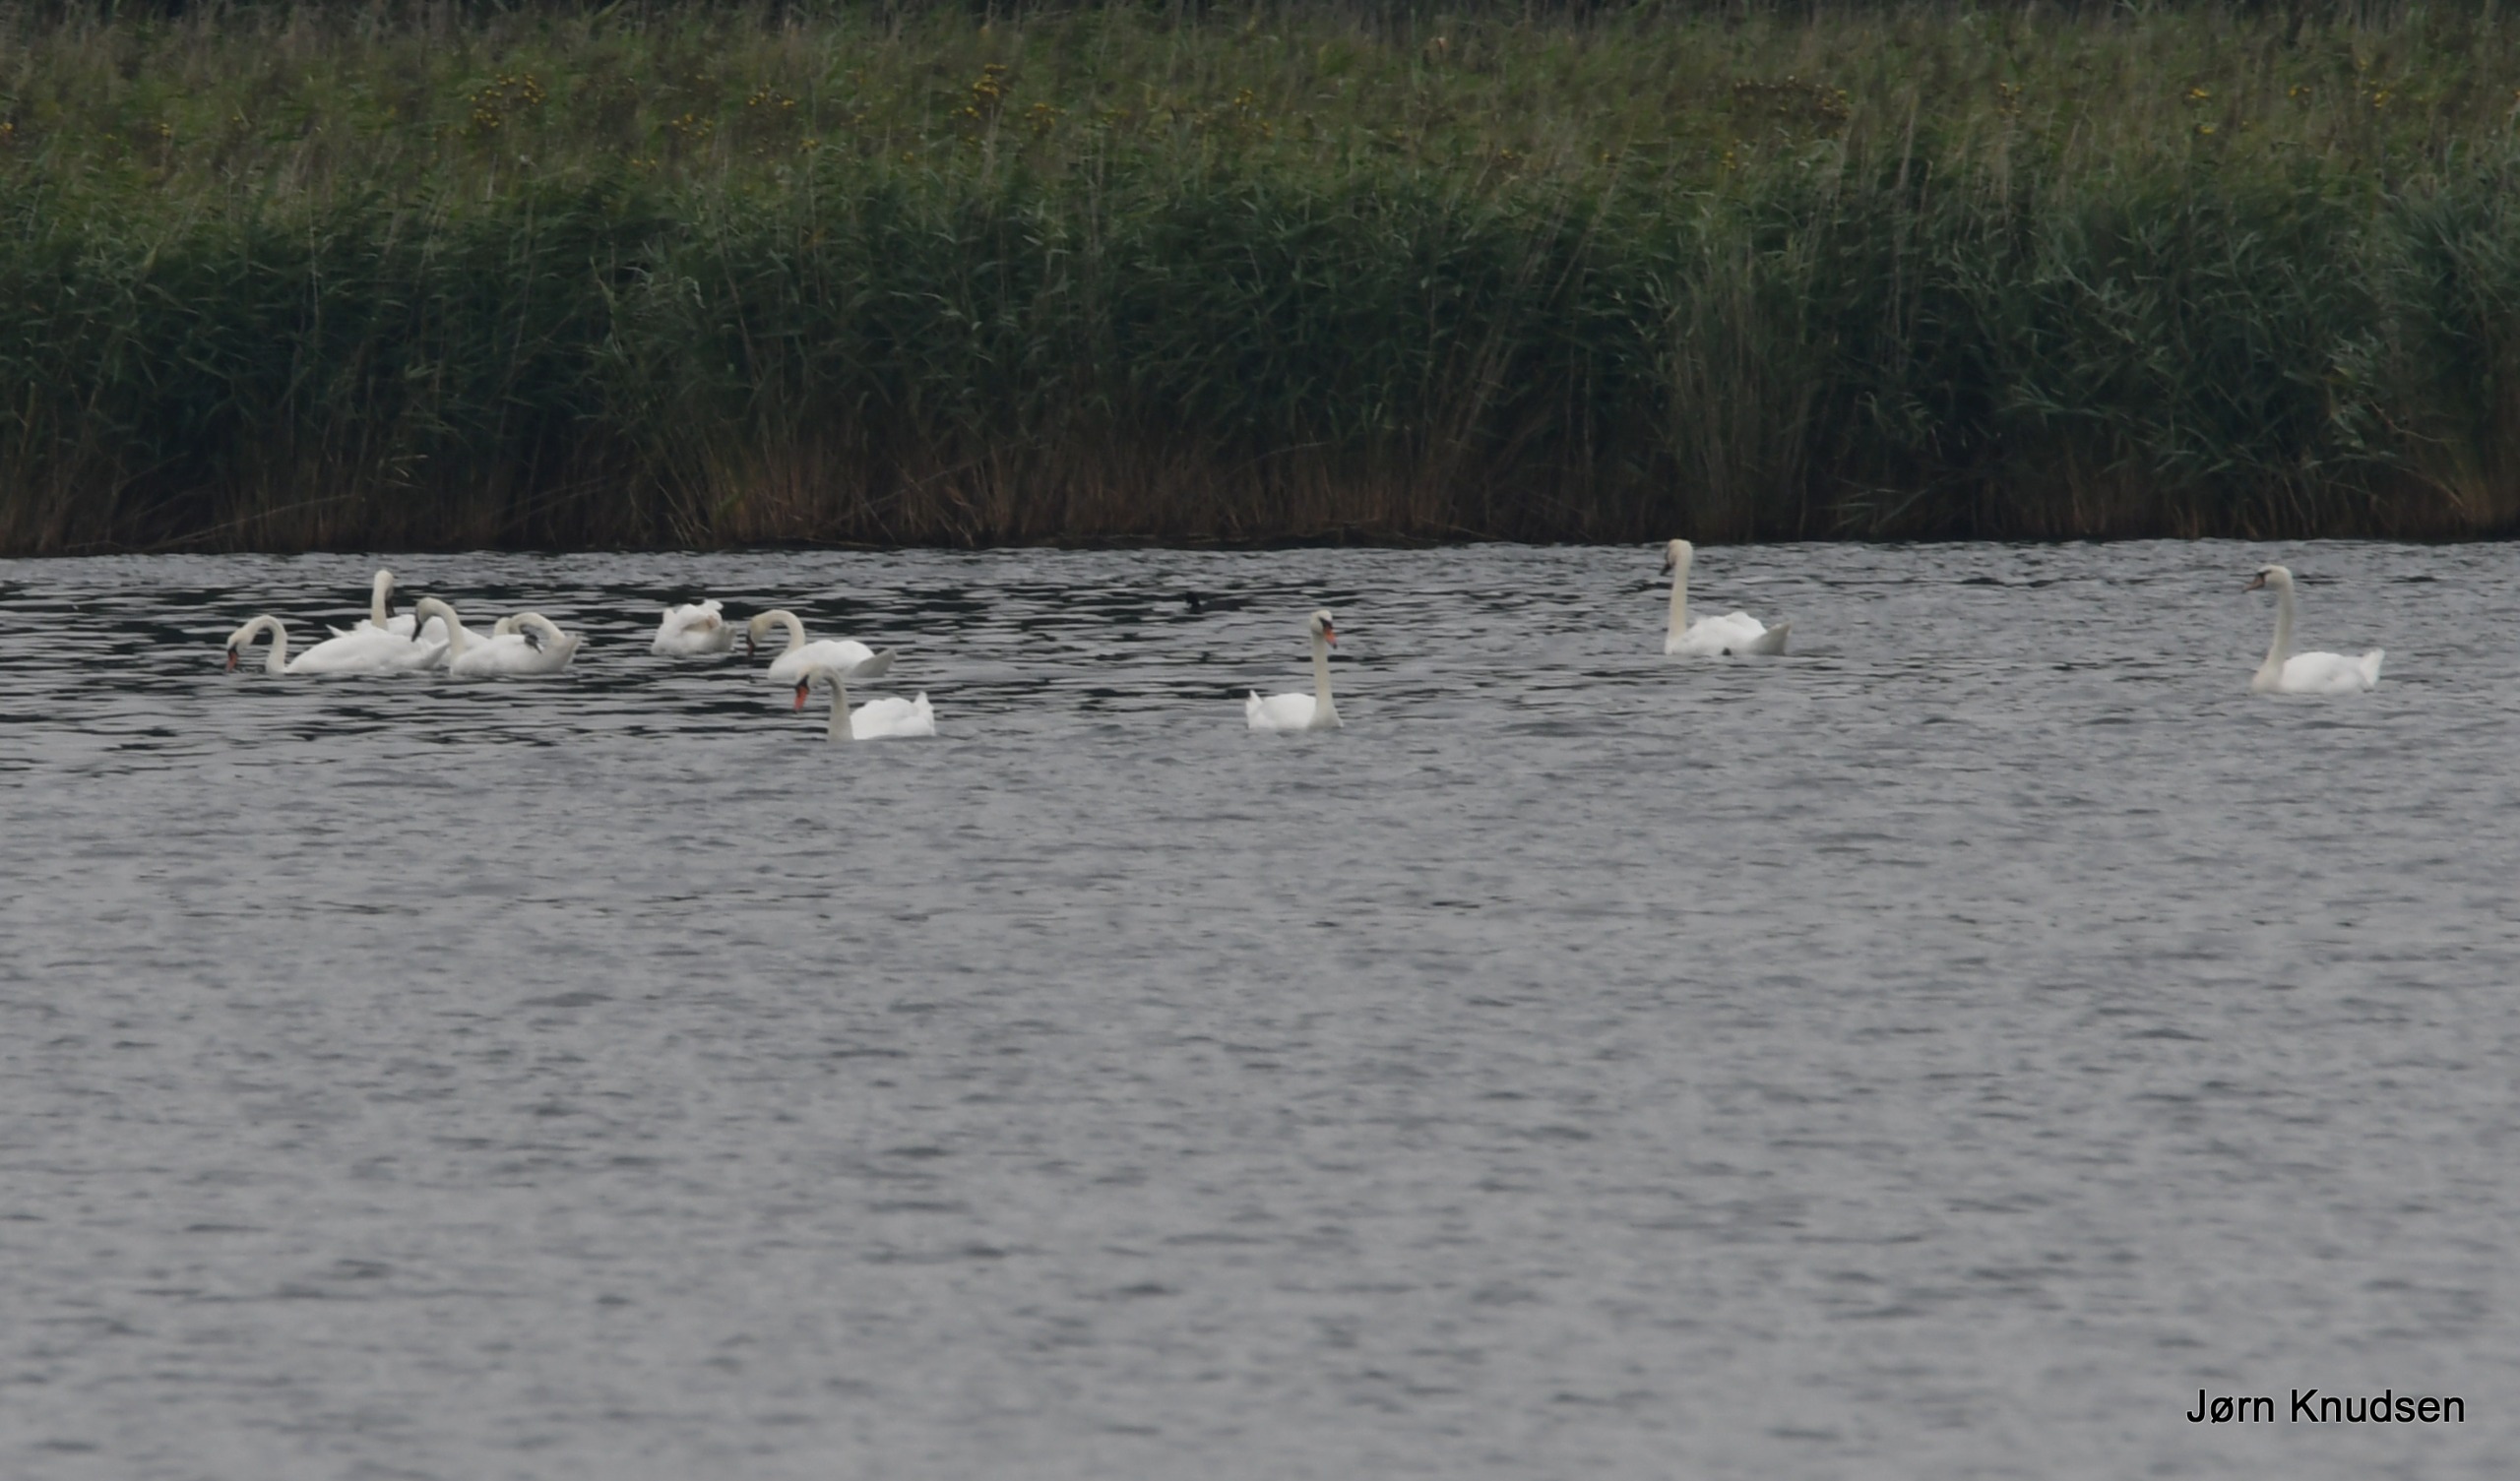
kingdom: Animalia
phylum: Chordata
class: Aves
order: Anseriformes
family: Anatidae
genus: Cygnus
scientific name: Cygnus olor
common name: Knopsvane
